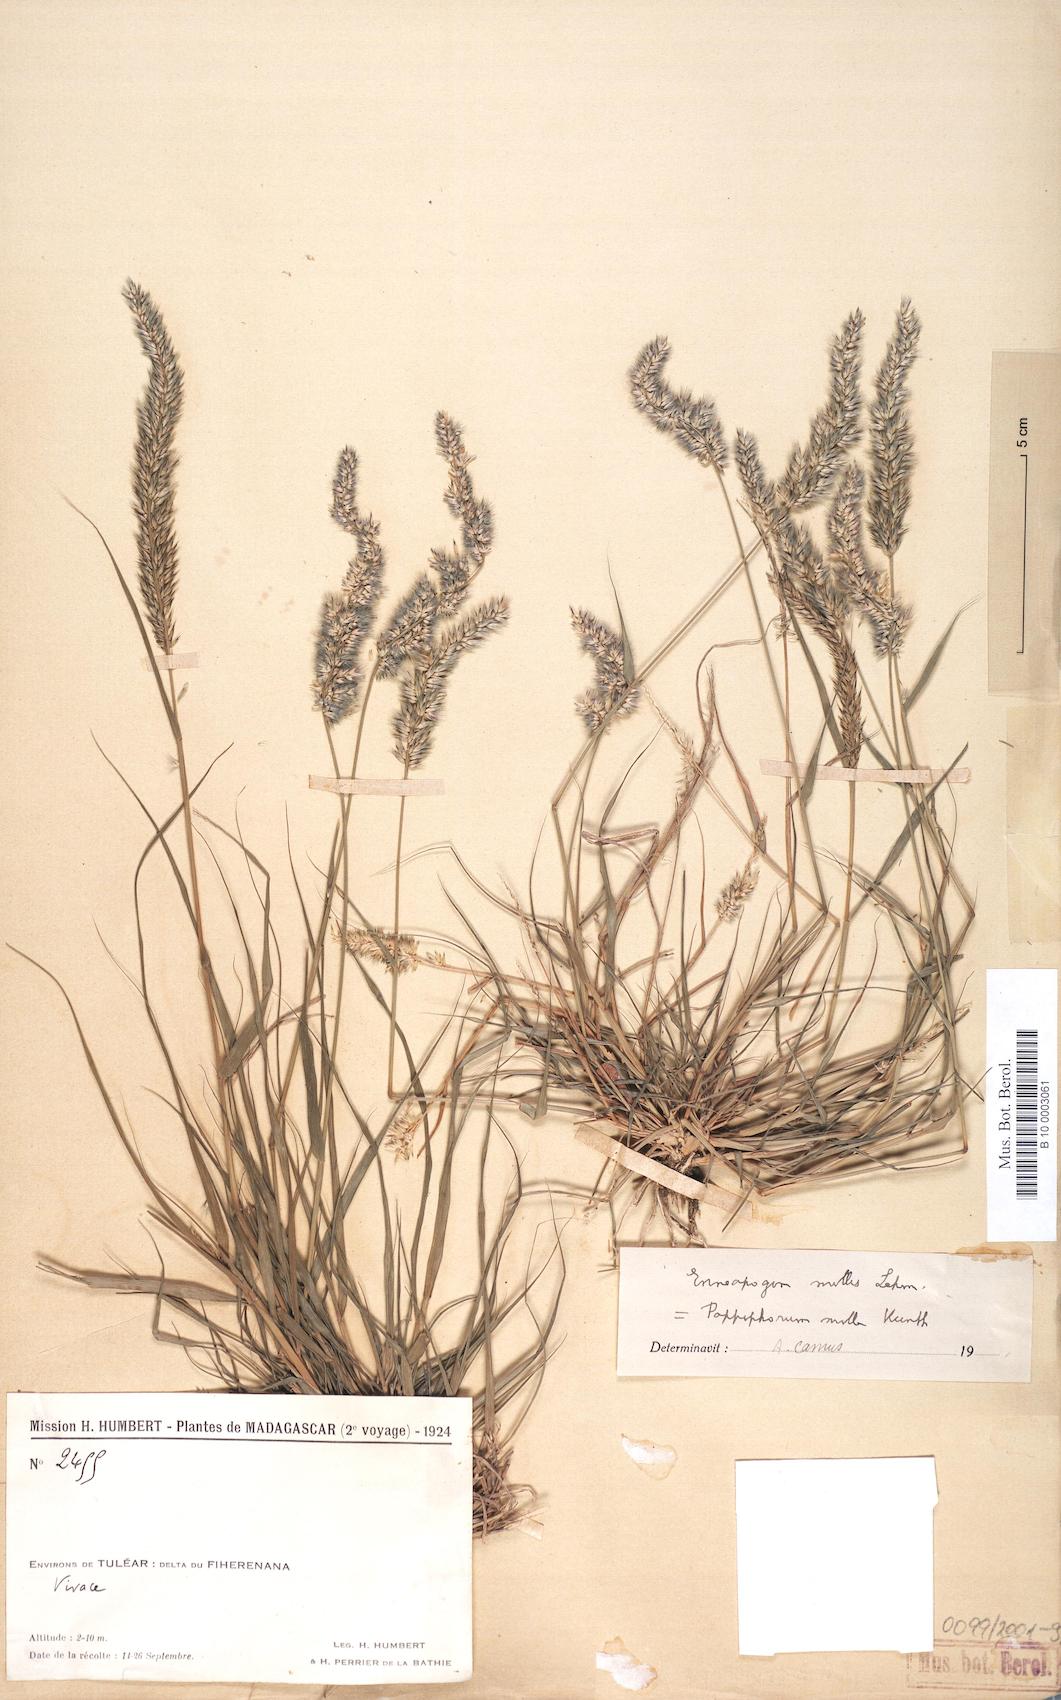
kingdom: Plantae
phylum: Tracheophyta
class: Liliopsida
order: Poales
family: Poaceae
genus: Enneapogon
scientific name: Enneapogon cenchroides
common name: Soft feather pappusgrass
